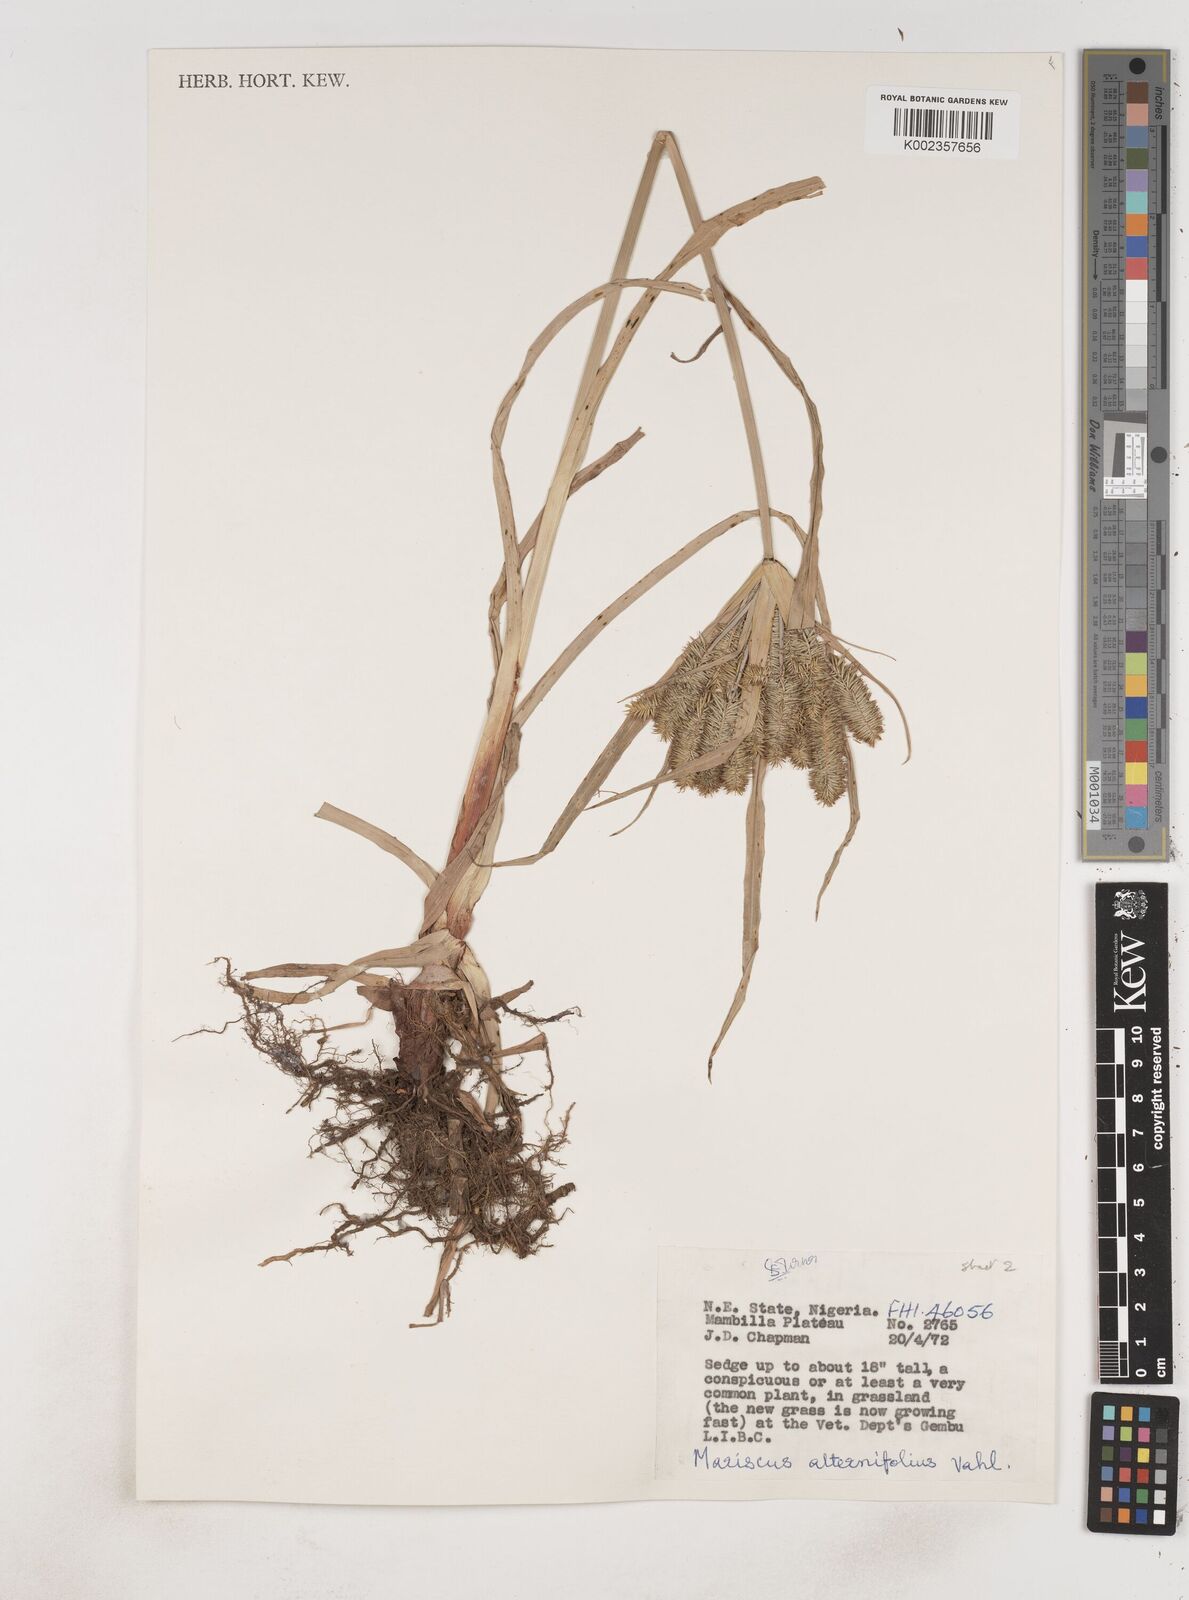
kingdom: Plantae
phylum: Tracheophyta
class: Liliopsida
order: Poales
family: Cyperaceae
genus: Cyperus
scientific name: Cyperus cyperoides
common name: Pacific island flat sedge
